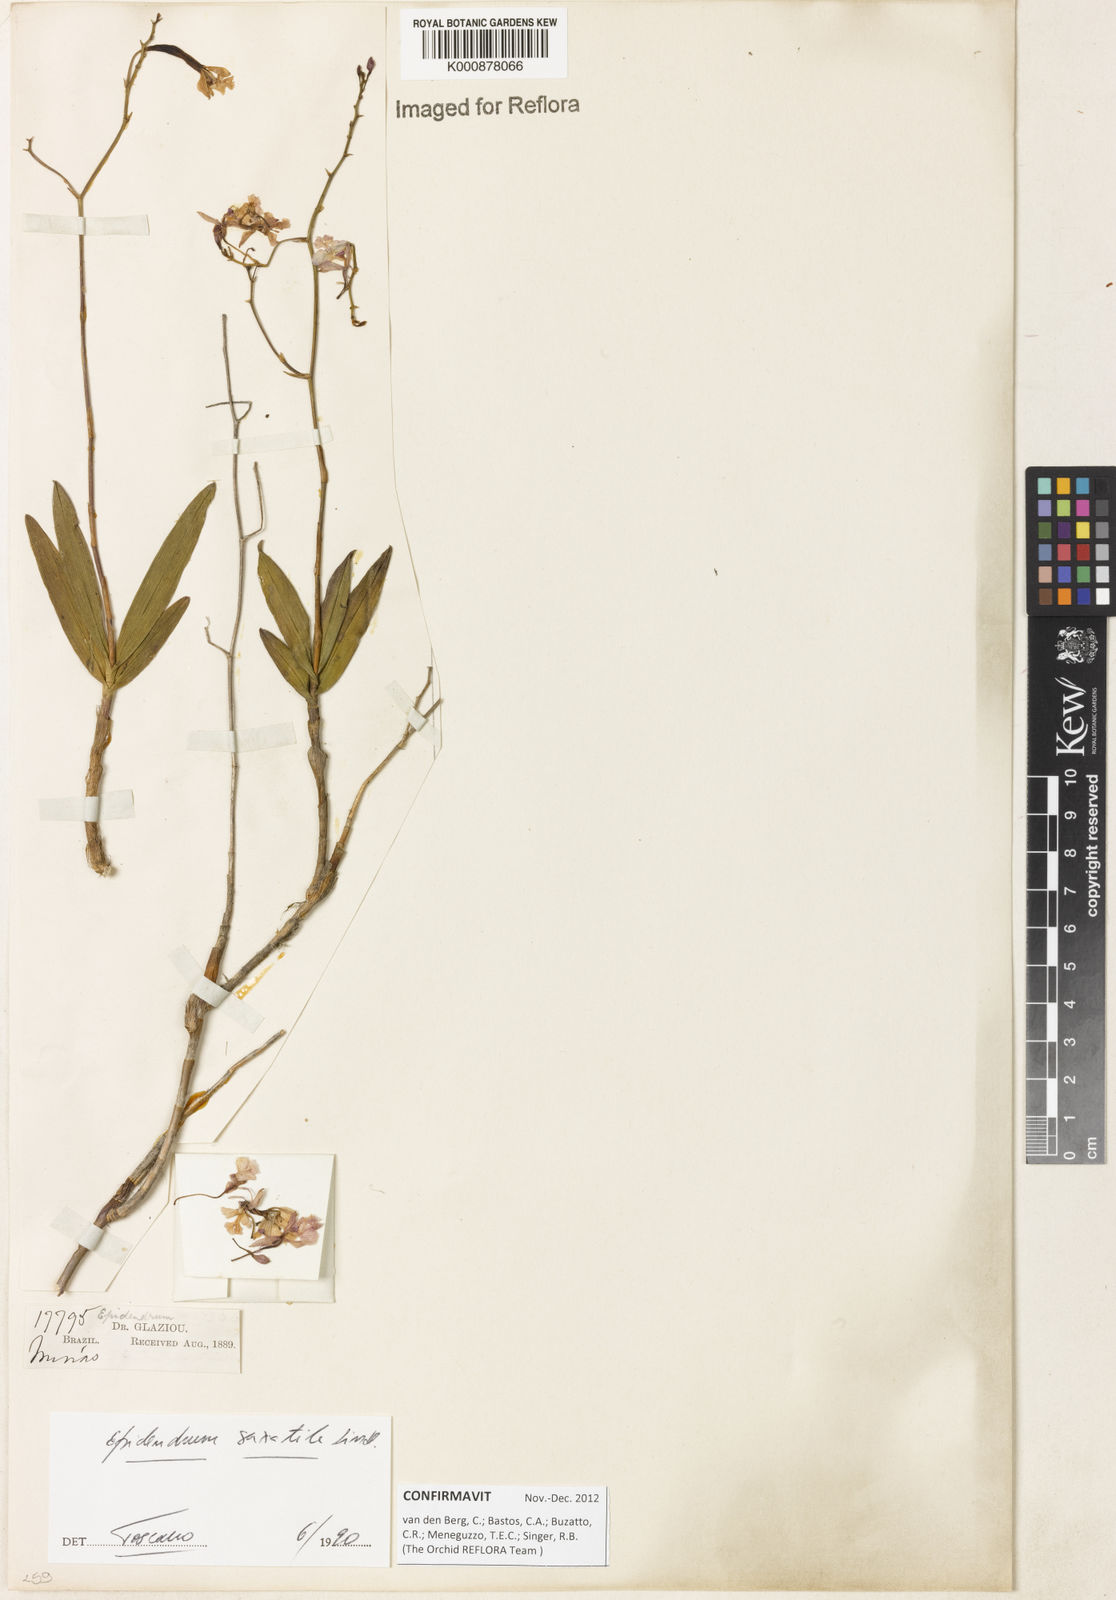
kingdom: Plantae
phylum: Tracheophyta
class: Liliopsida
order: Asparagales
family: Orchidaceae
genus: Epidendrum
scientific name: Epidendrum saxatile
